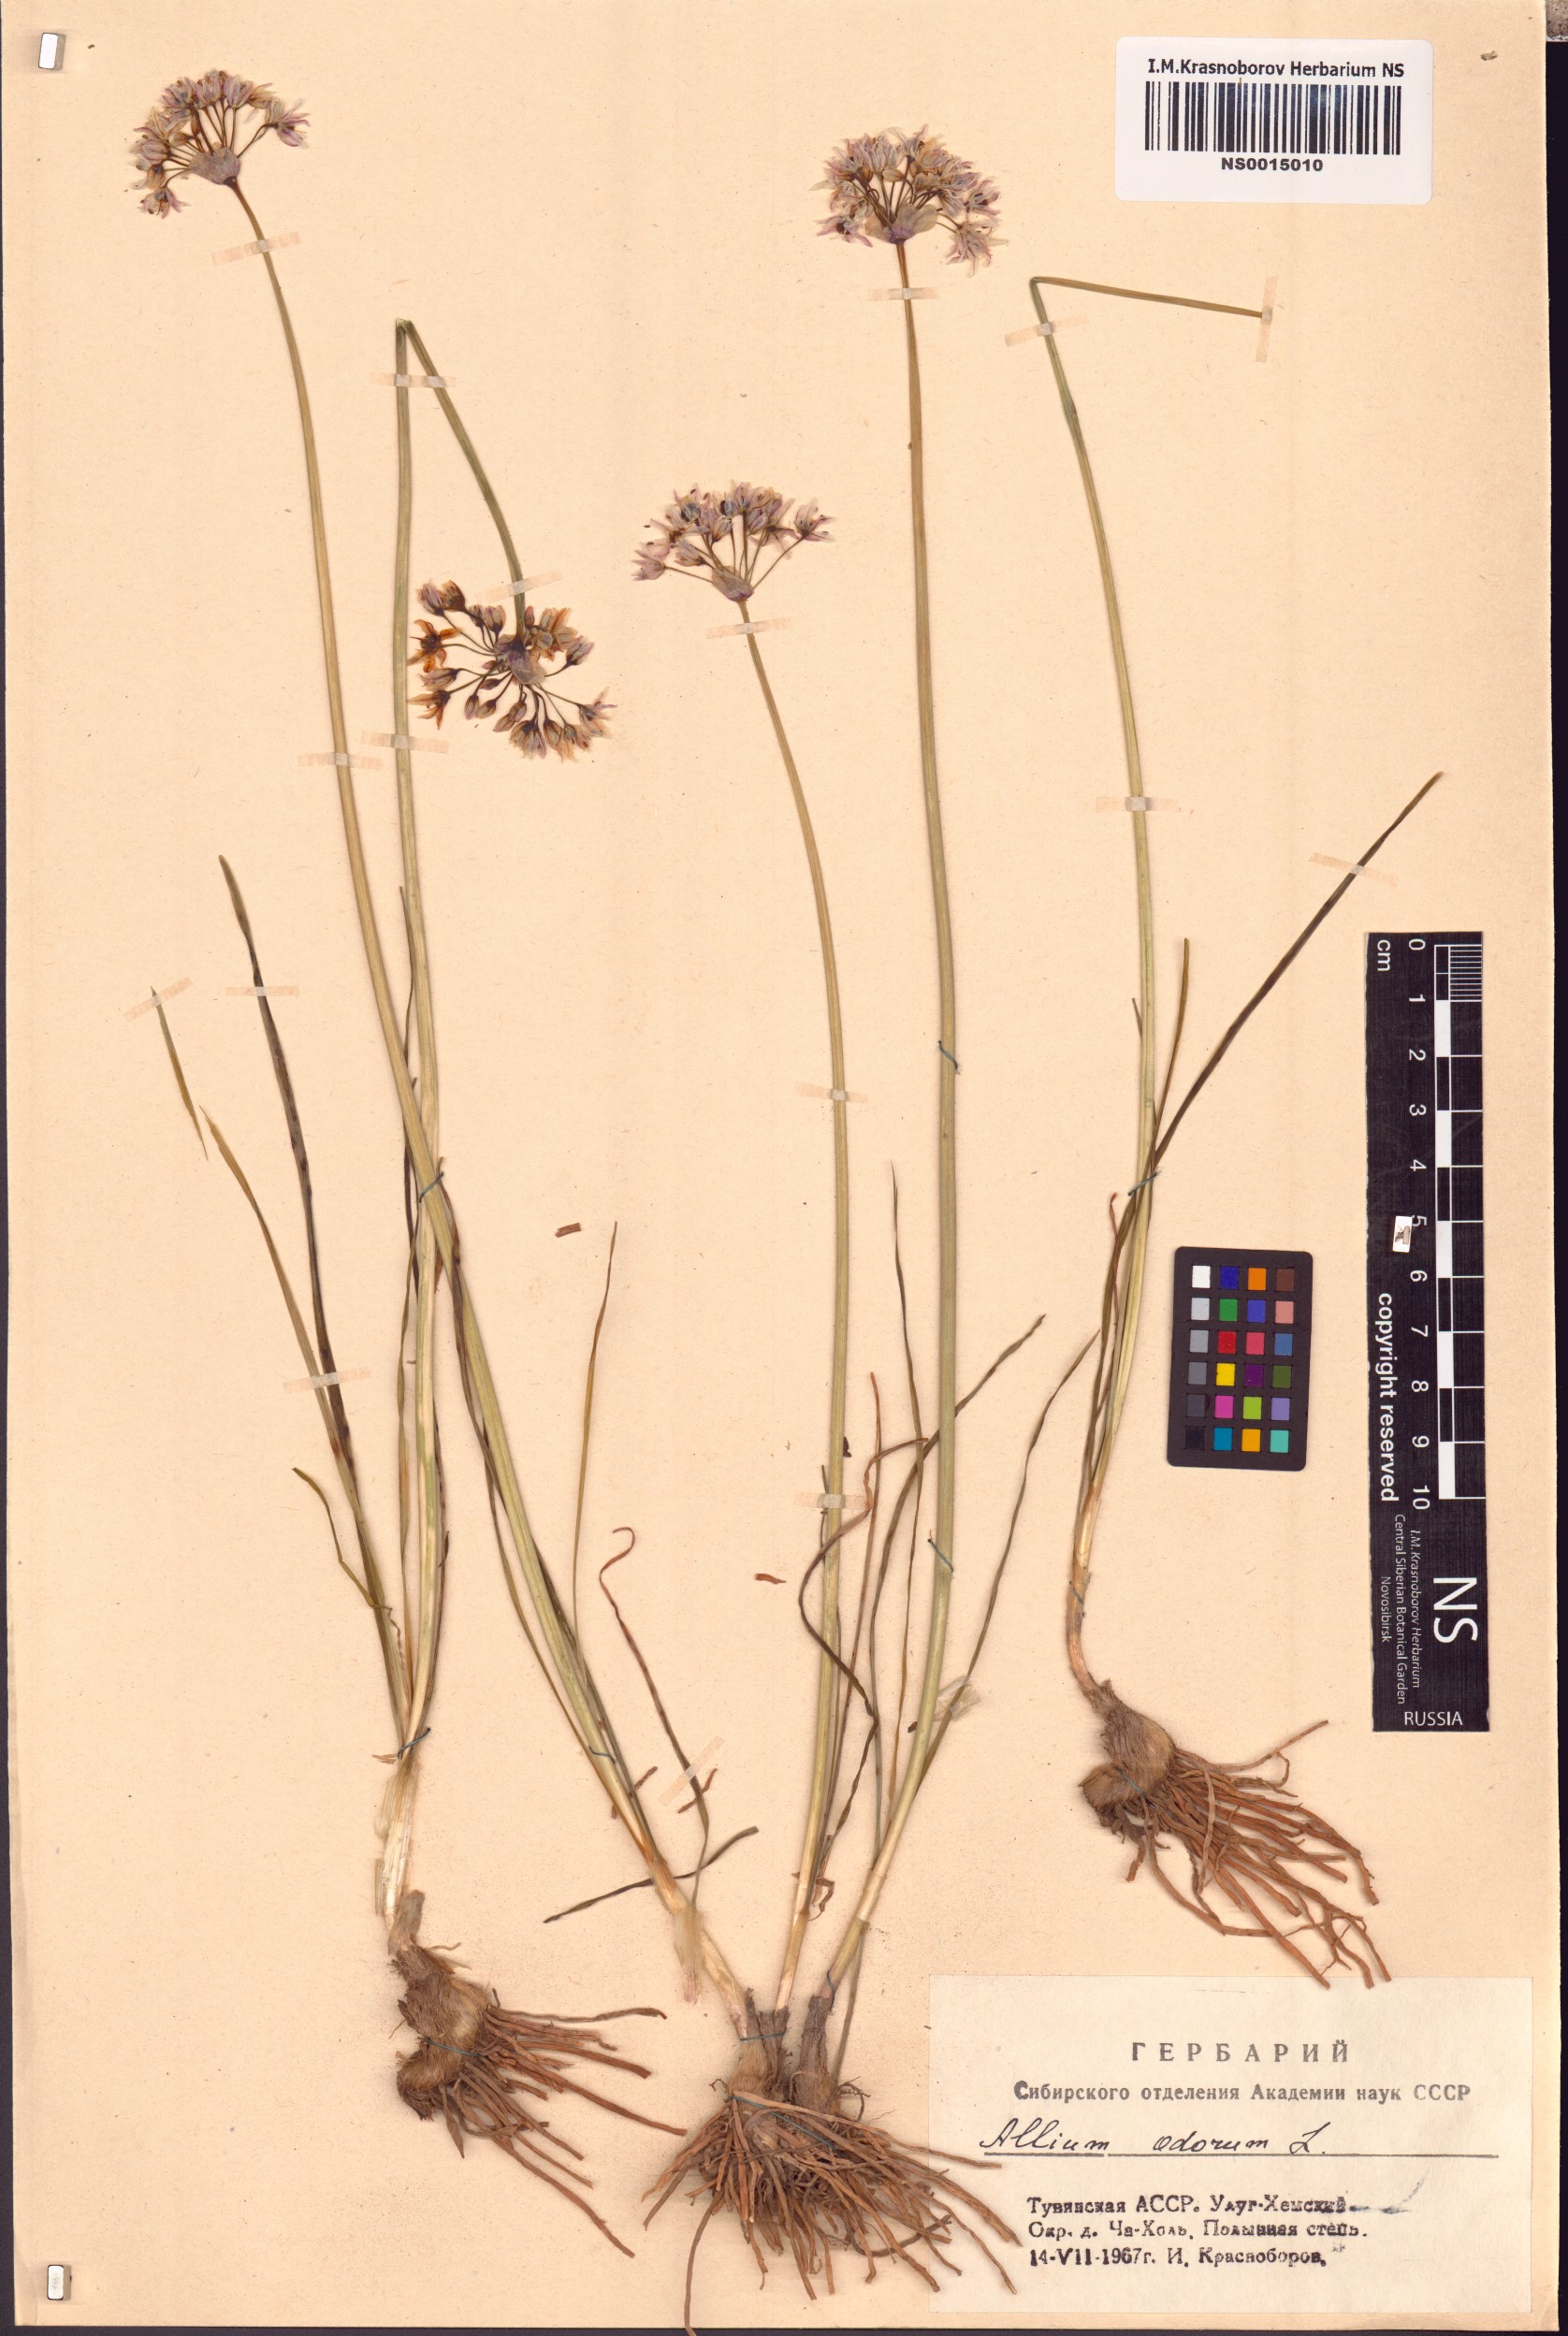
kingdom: Plantae
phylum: Tracheophyta
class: Liliopsida
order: Asparagales
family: Amaryllidaceae
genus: Allium
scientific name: Allium ramosum
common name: Fragrant garlic
